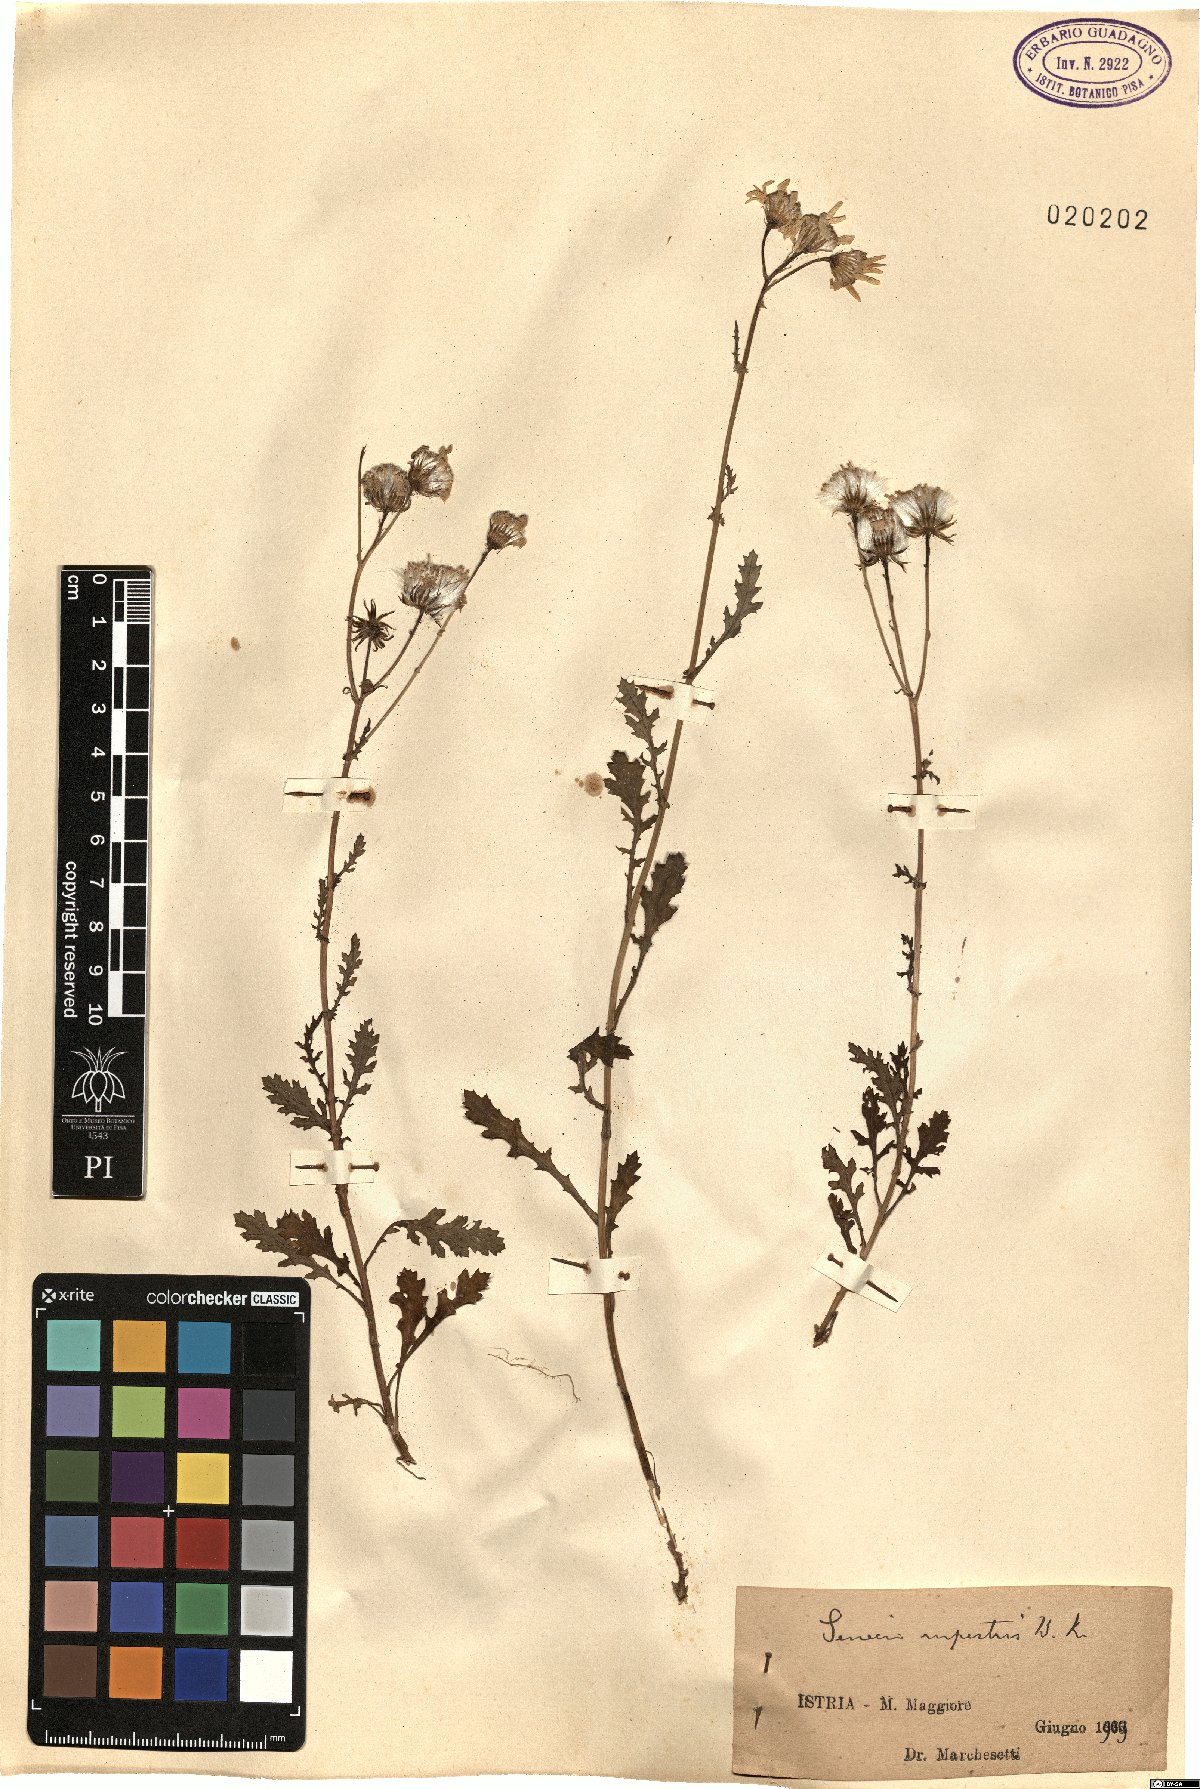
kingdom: Plantae
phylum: Tracheophyta
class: Magnoliopsida
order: Asterales
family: Asteraceae
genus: Senecio
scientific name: Senecio rupestris
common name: Rock ragwort
